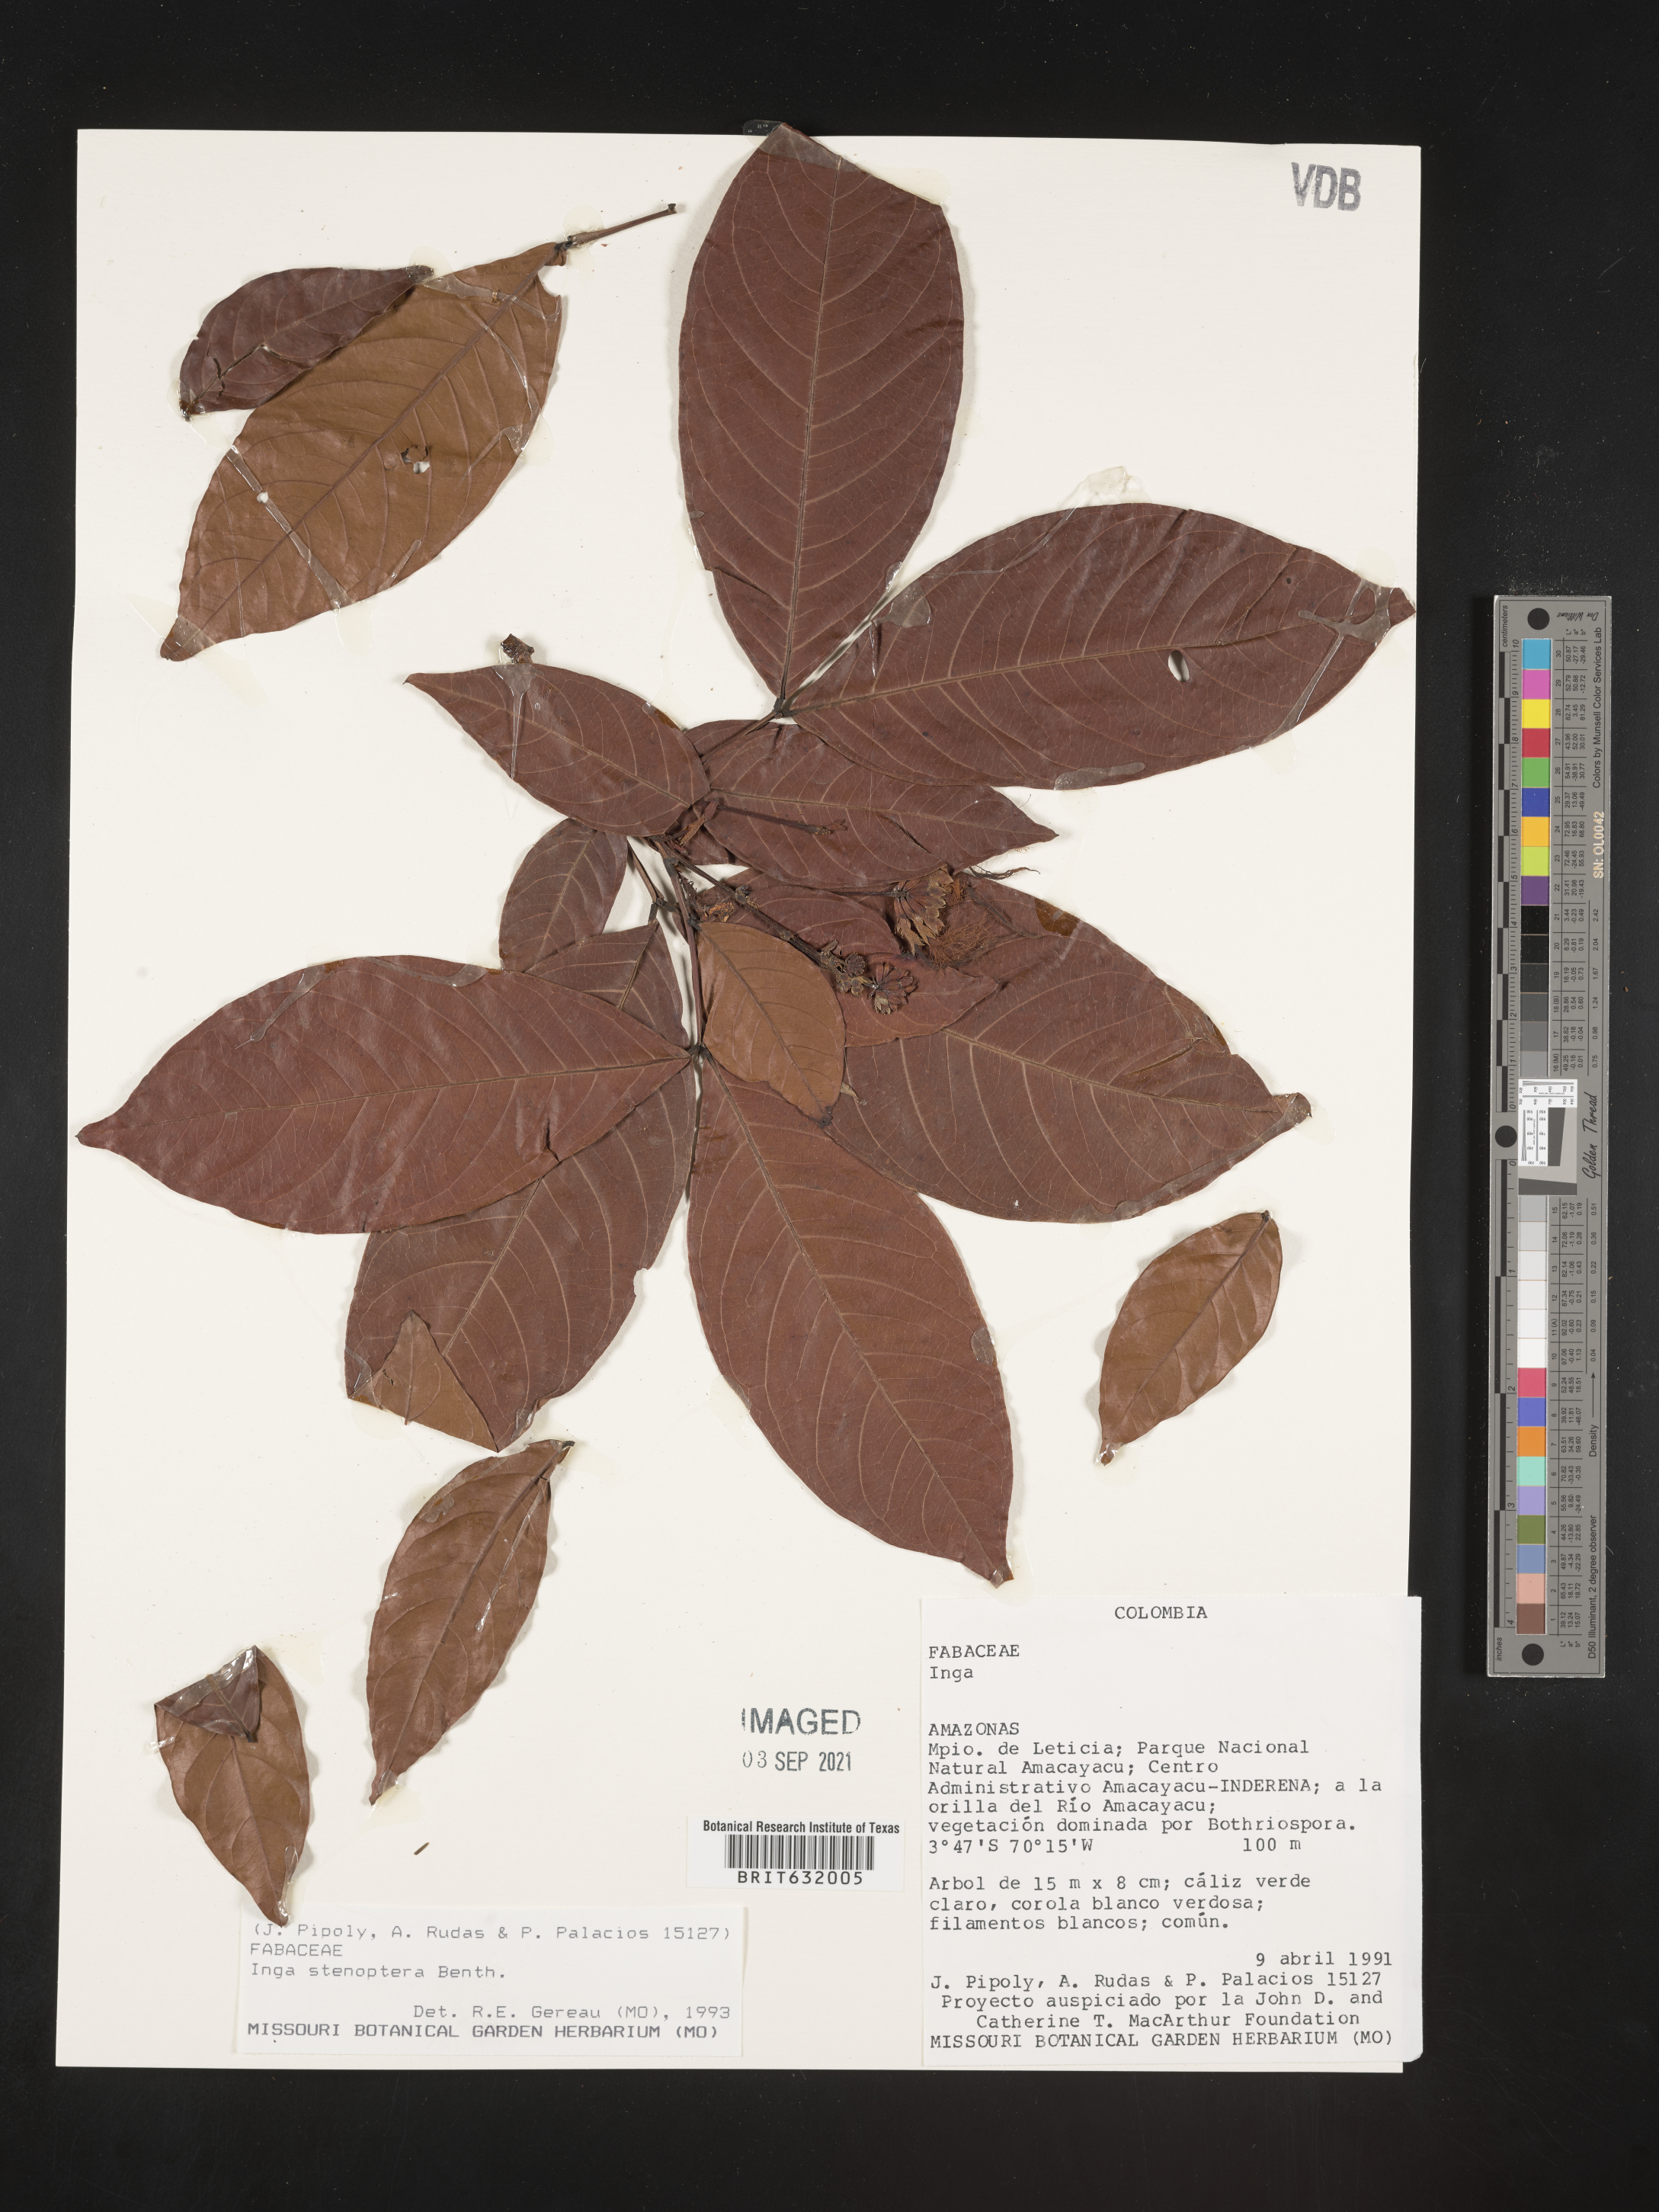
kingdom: Plantae
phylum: Tracheophyta
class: Magnoliopsida
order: Fabales
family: Fabaceae
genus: Inga
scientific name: Inga
